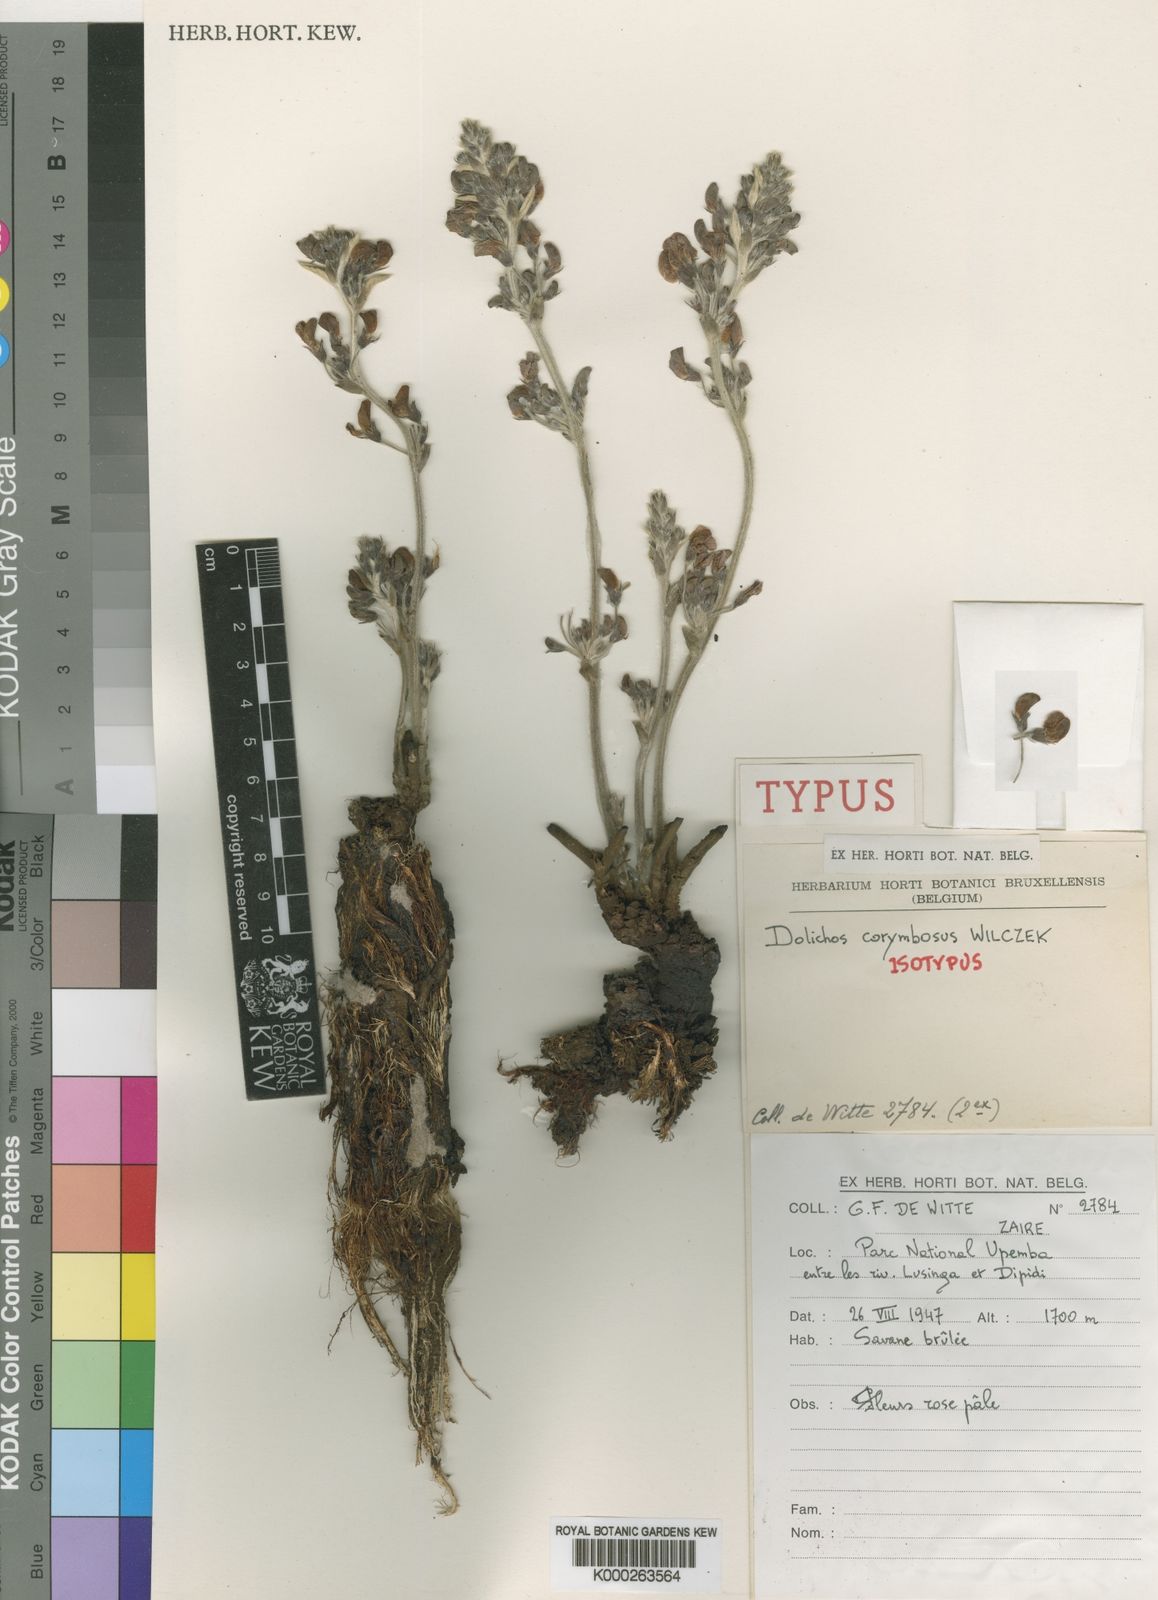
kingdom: Plantae
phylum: Tracheophyta
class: Magnoliopsida
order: Fabales
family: Fabaceae
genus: Dolichos
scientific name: Dolichos corymbosus
